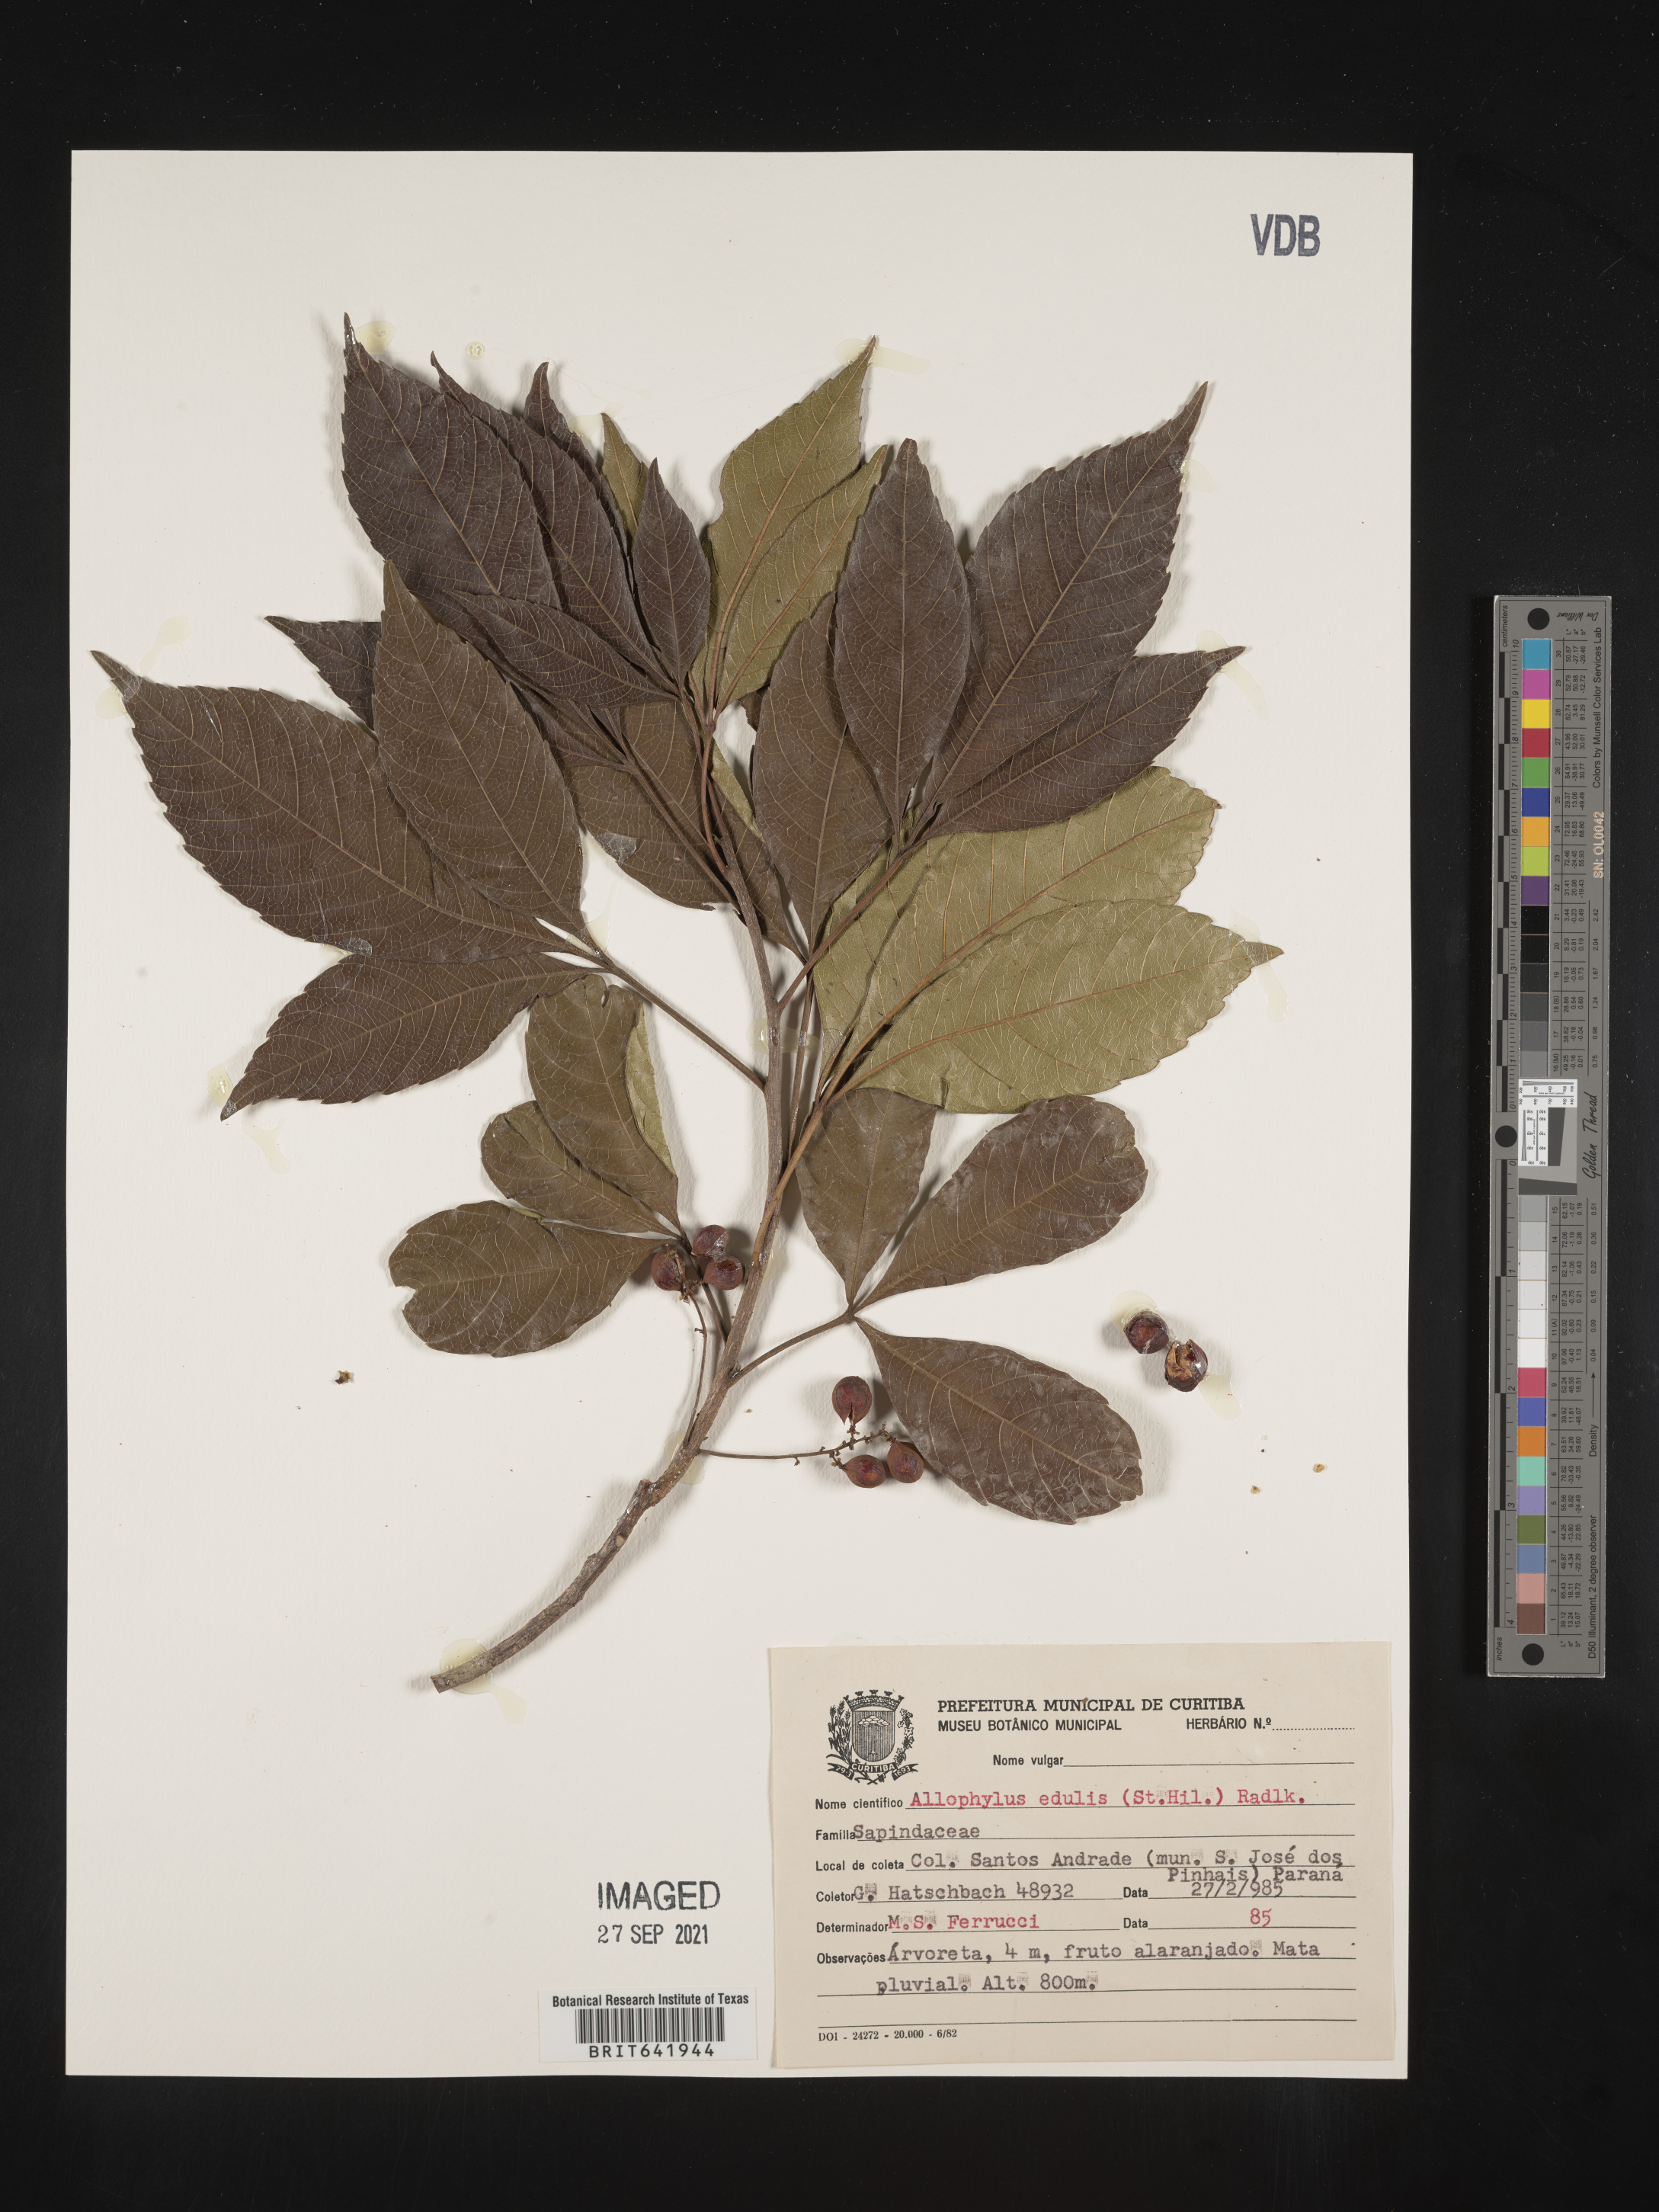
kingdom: Plantae
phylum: Tracheophyta
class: Magnoliopsida
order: Sapindales
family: Sapindaceae
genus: Allophylus
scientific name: Allophylus
